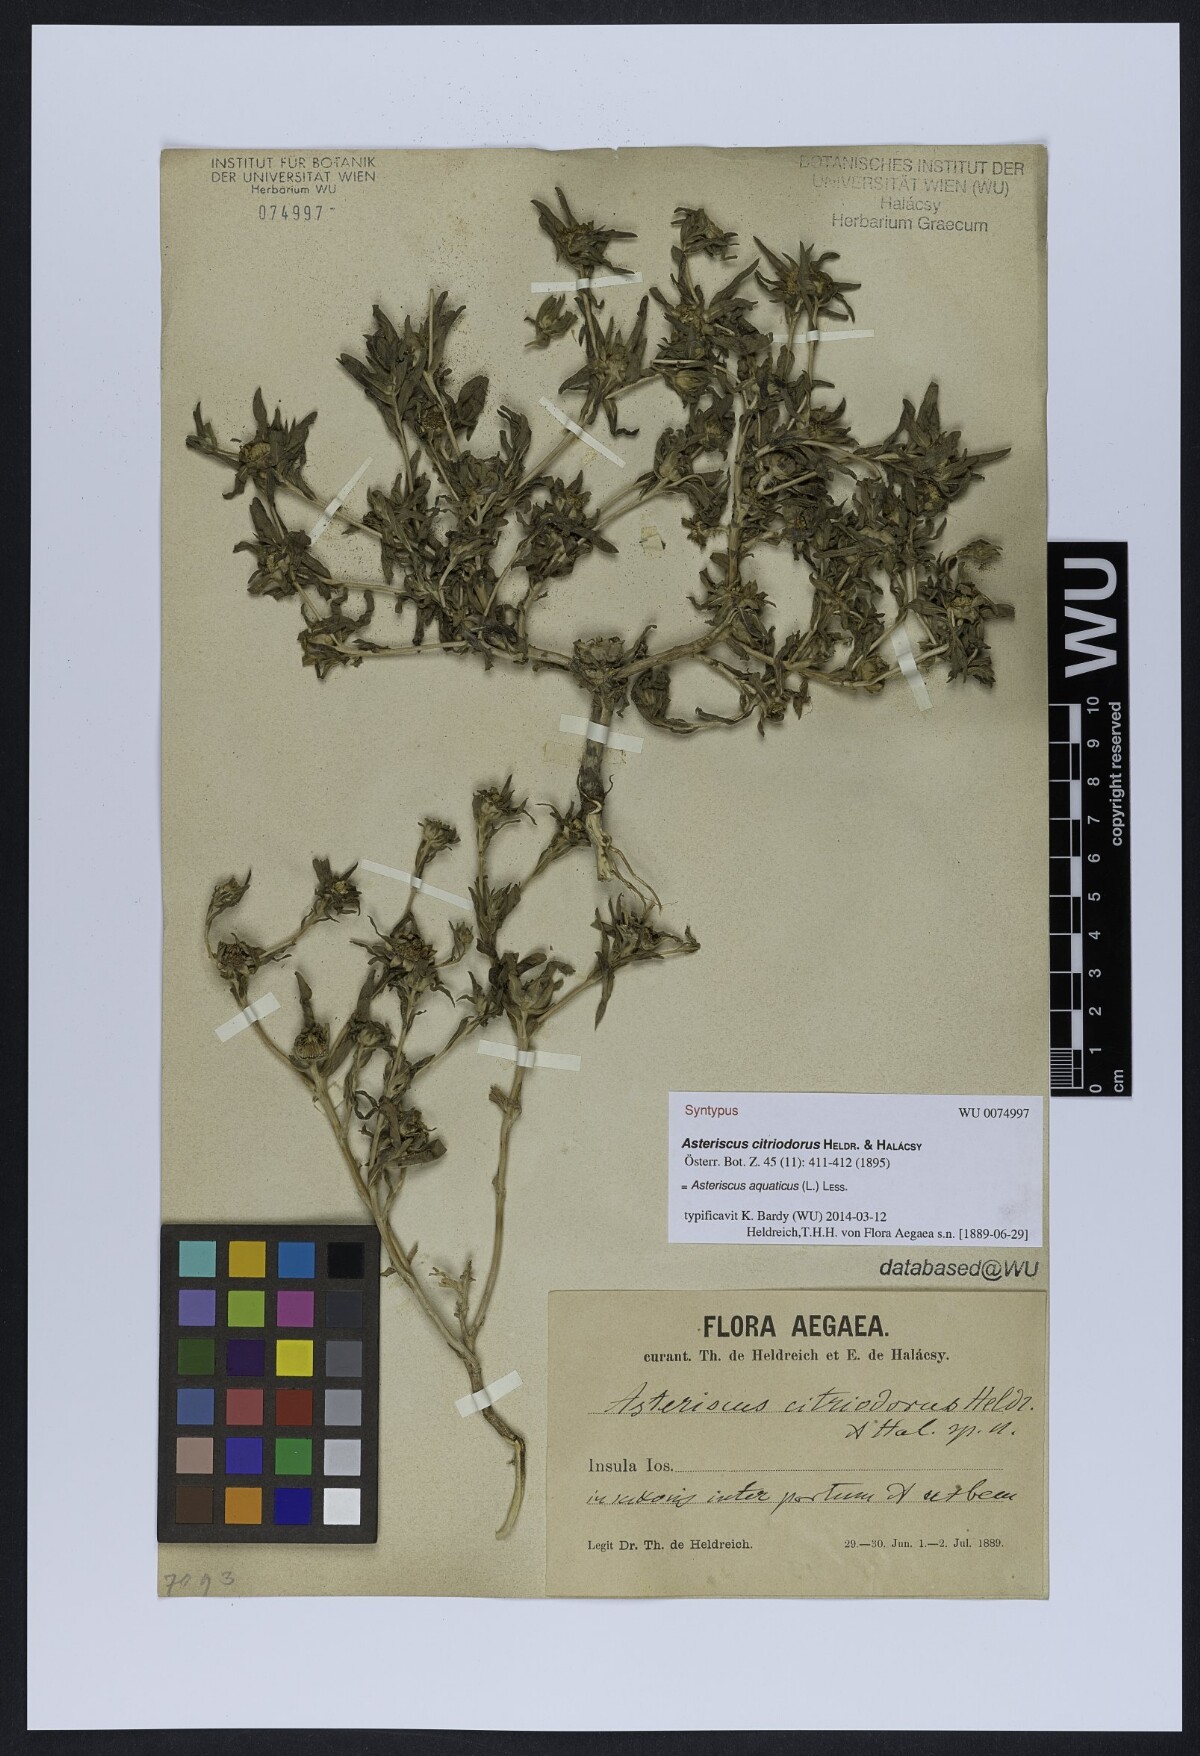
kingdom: Plantae
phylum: Tracheophyta
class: Magnoliopsida
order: Asterales
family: Asteraceae
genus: Asteriscus
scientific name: Asteriscus aquaticus
